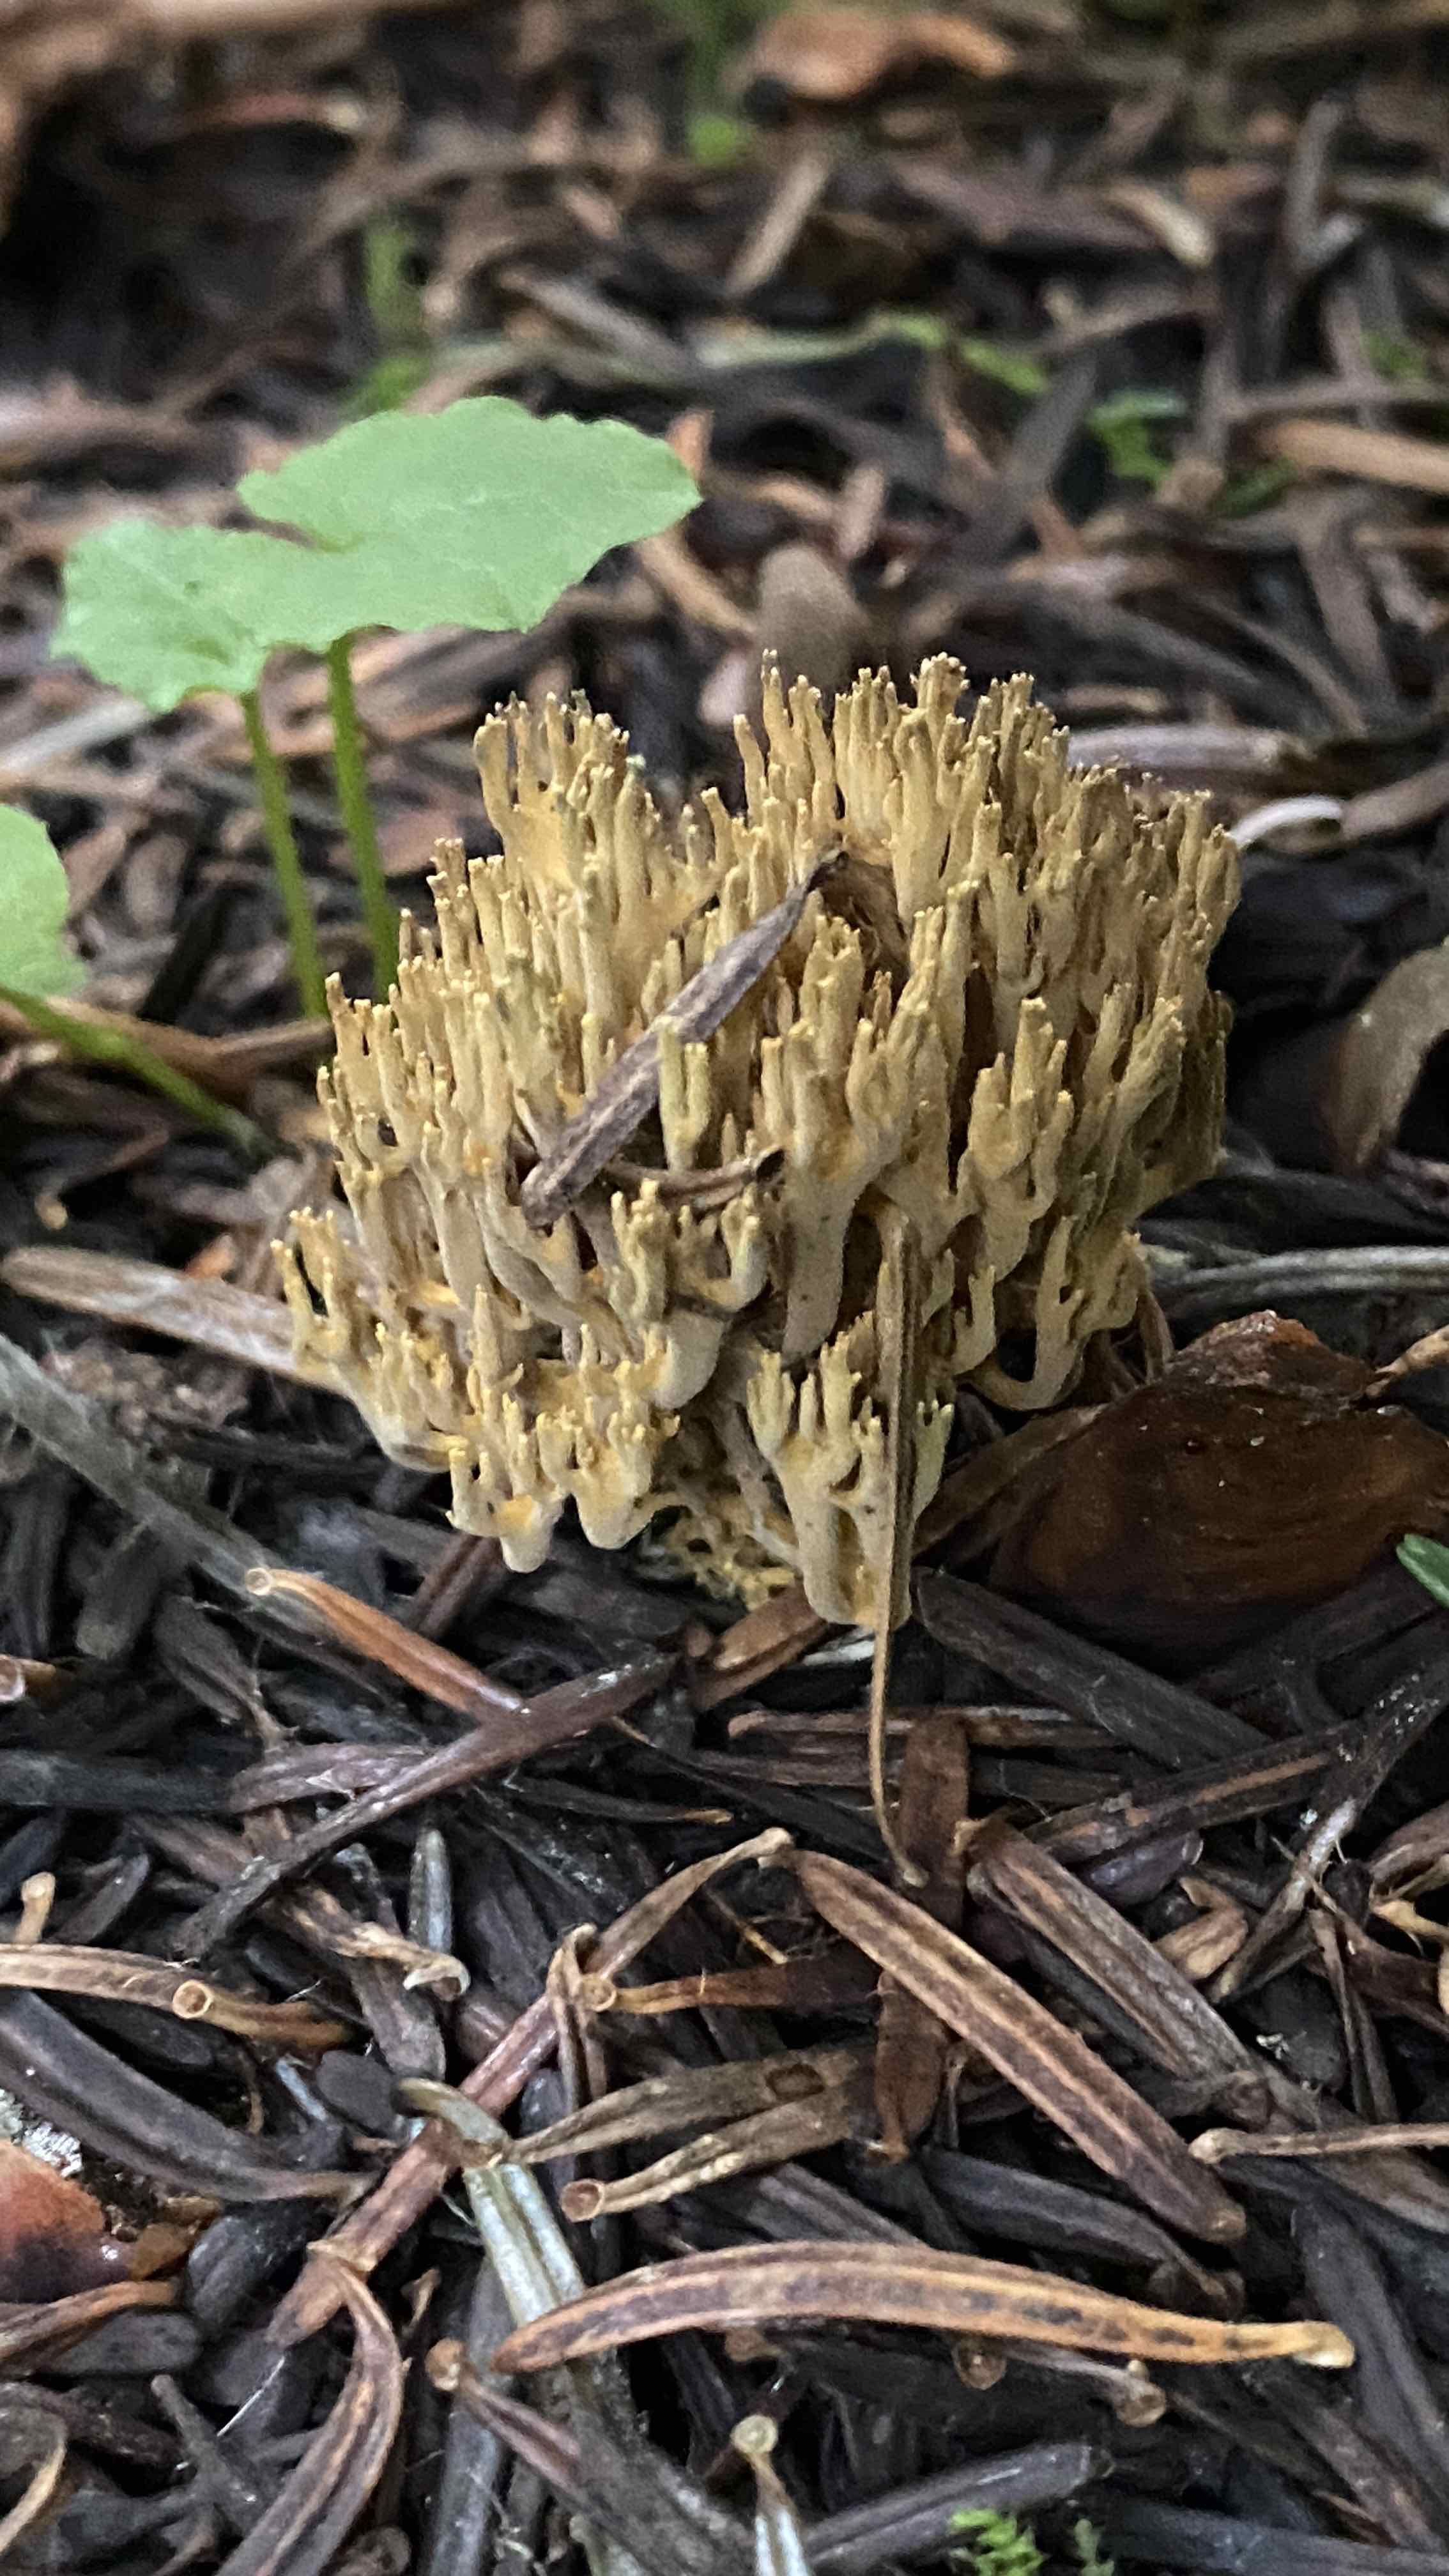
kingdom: Fungi
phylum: Basidiomycota
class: Agaricomycetes
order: Gomphales
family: Gomphaceae
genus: Phaeoclavulina
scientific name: Phaeoclavulina
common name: koralsvamp
